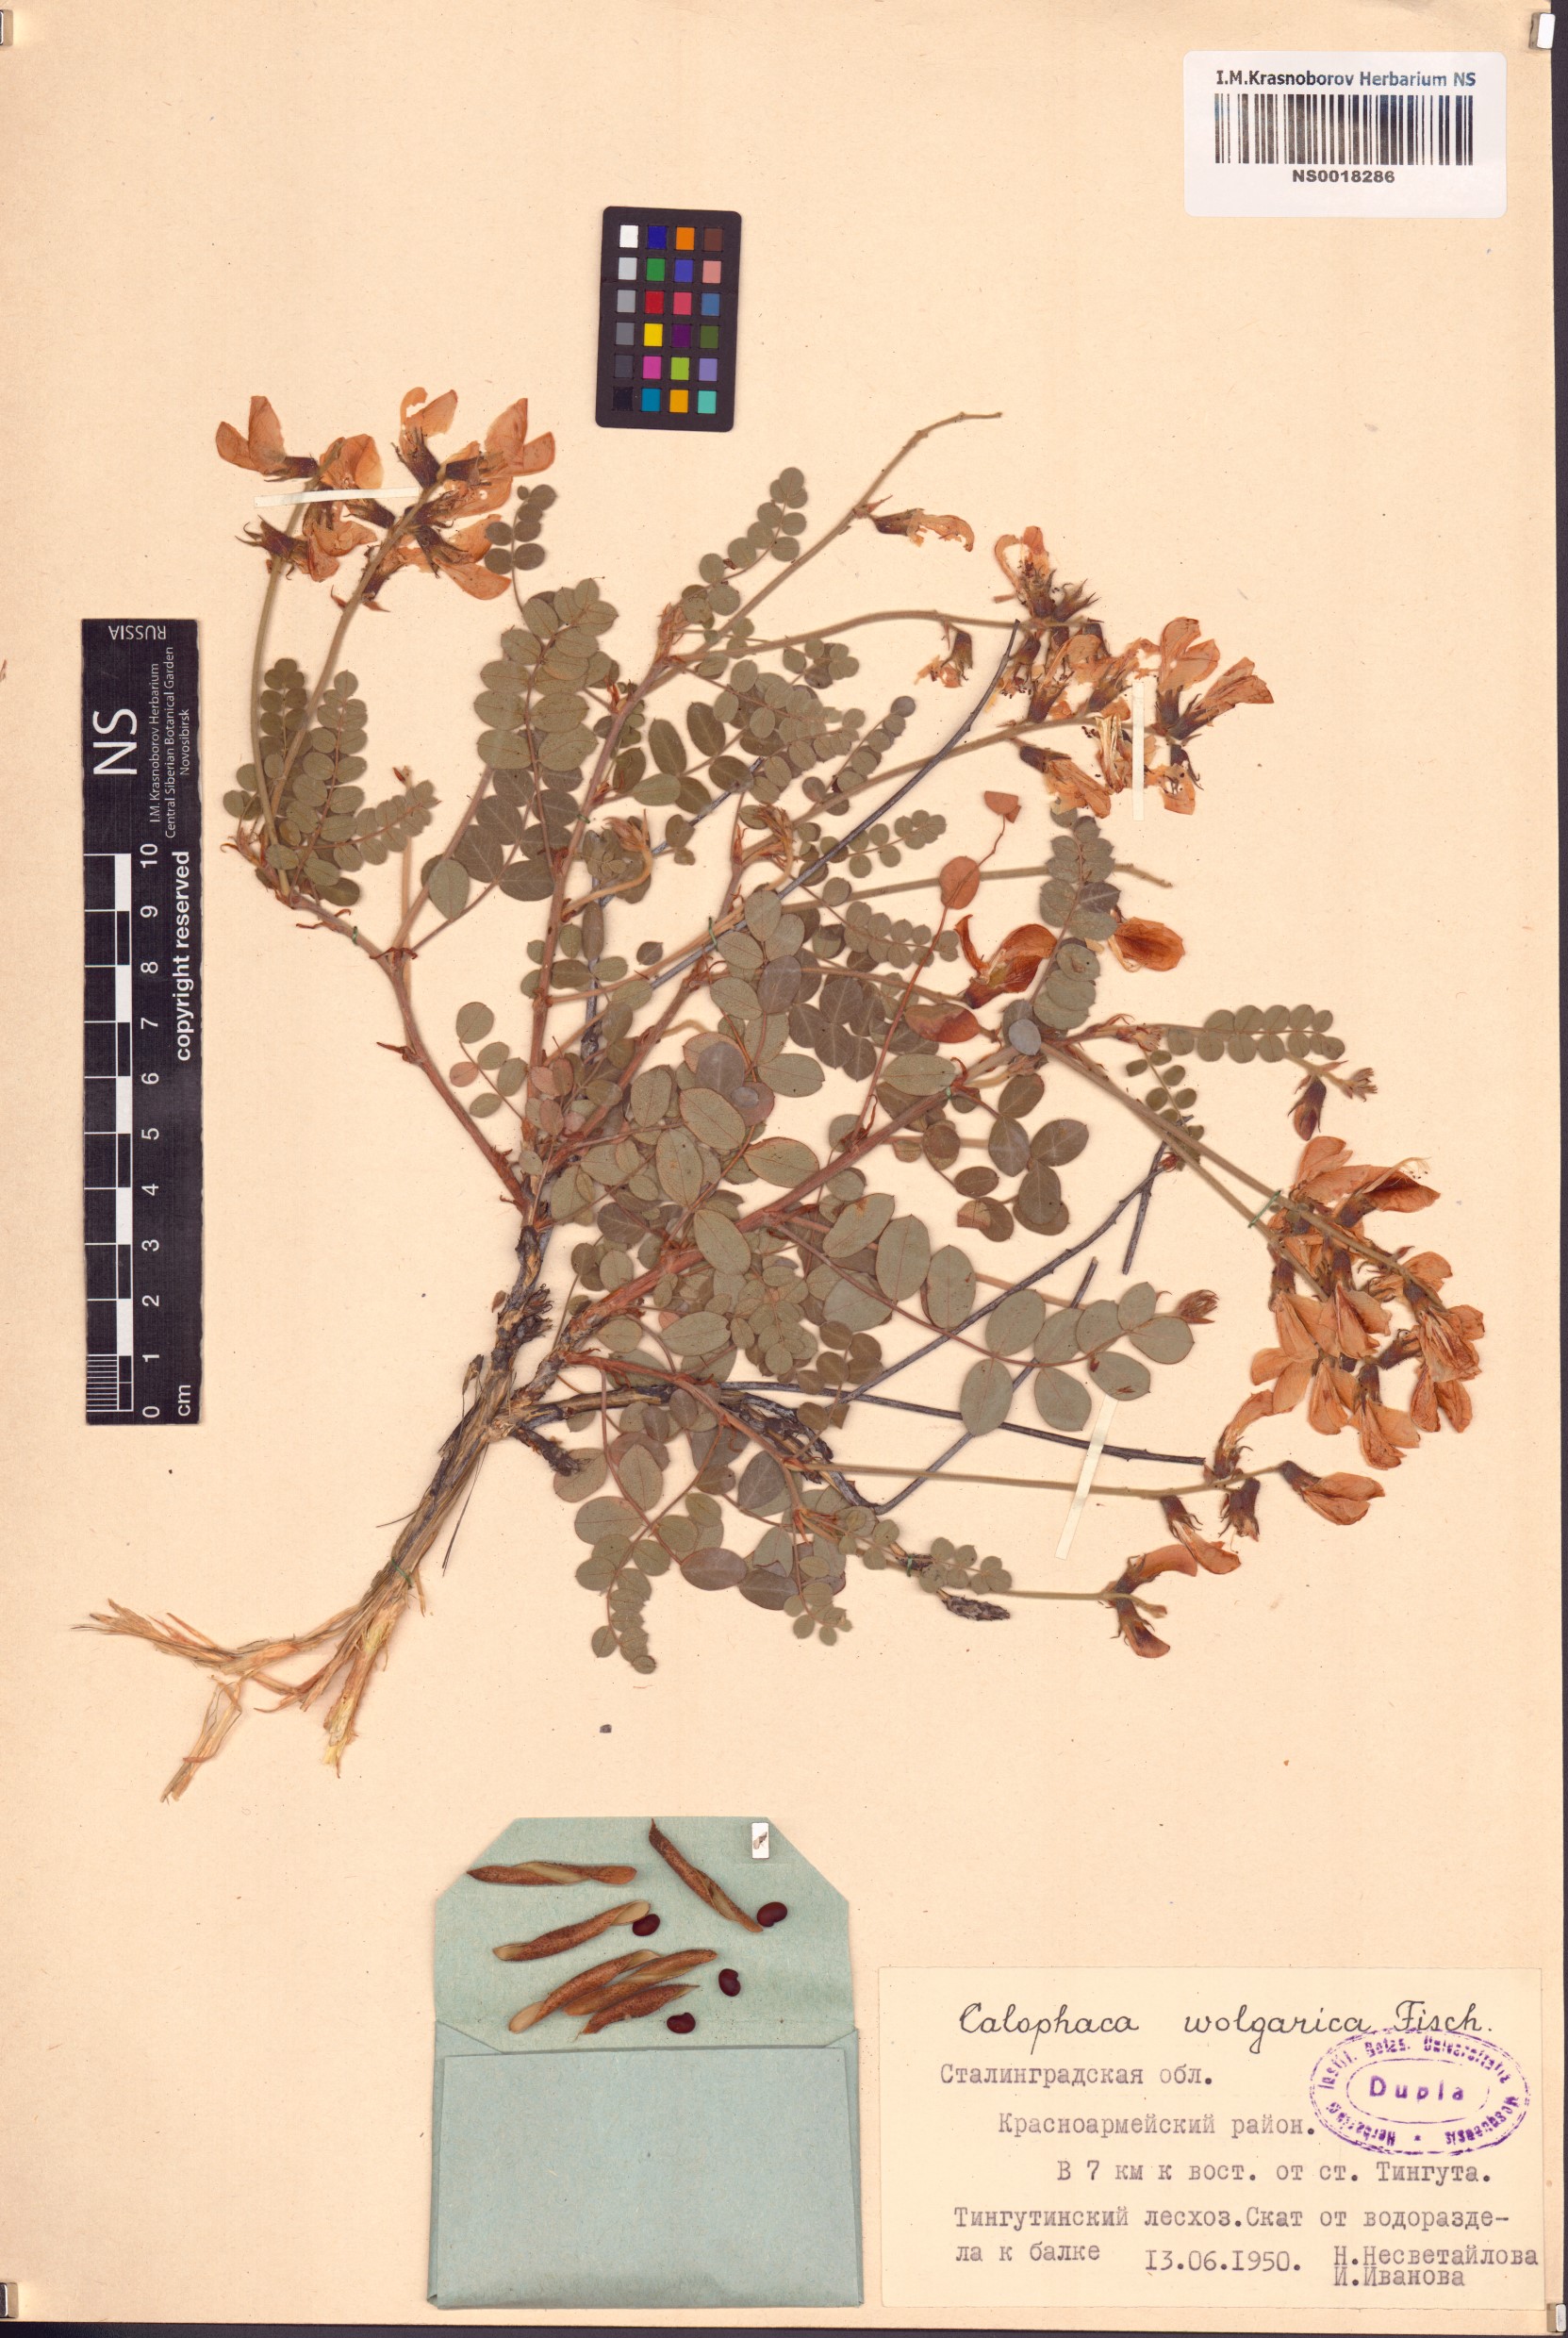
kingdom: Plantae
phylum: Tracheophyta
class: Magnoliopsida
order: Fabales
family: Fabaceae
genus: Calophaca
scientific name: Calophaca wolgarica
